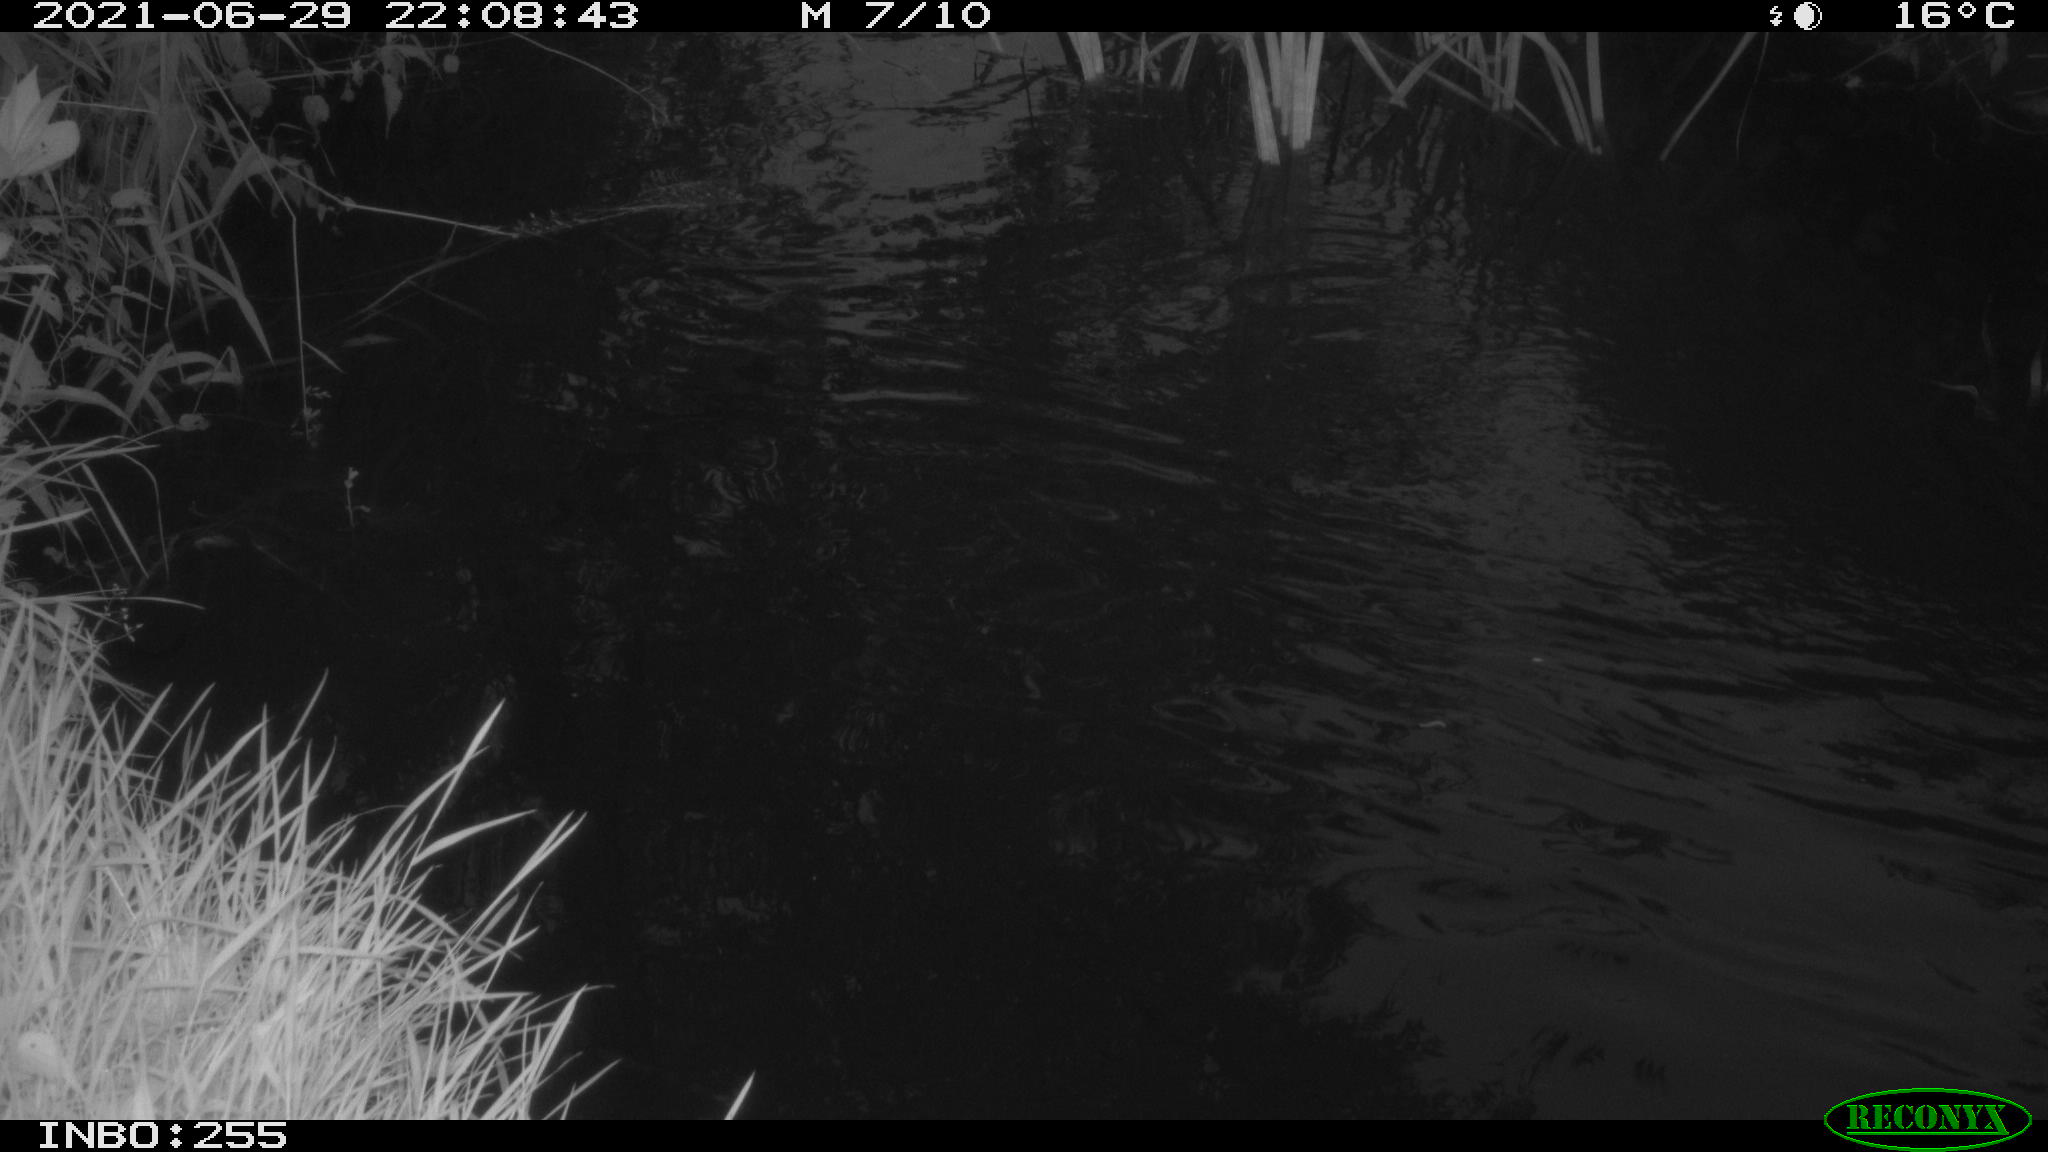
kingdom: Animalia
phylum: Chordata
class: Aves
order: Anseriformes
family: Anatidae
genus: Anas
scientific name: Anas platyrhynchos
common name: Mallard
